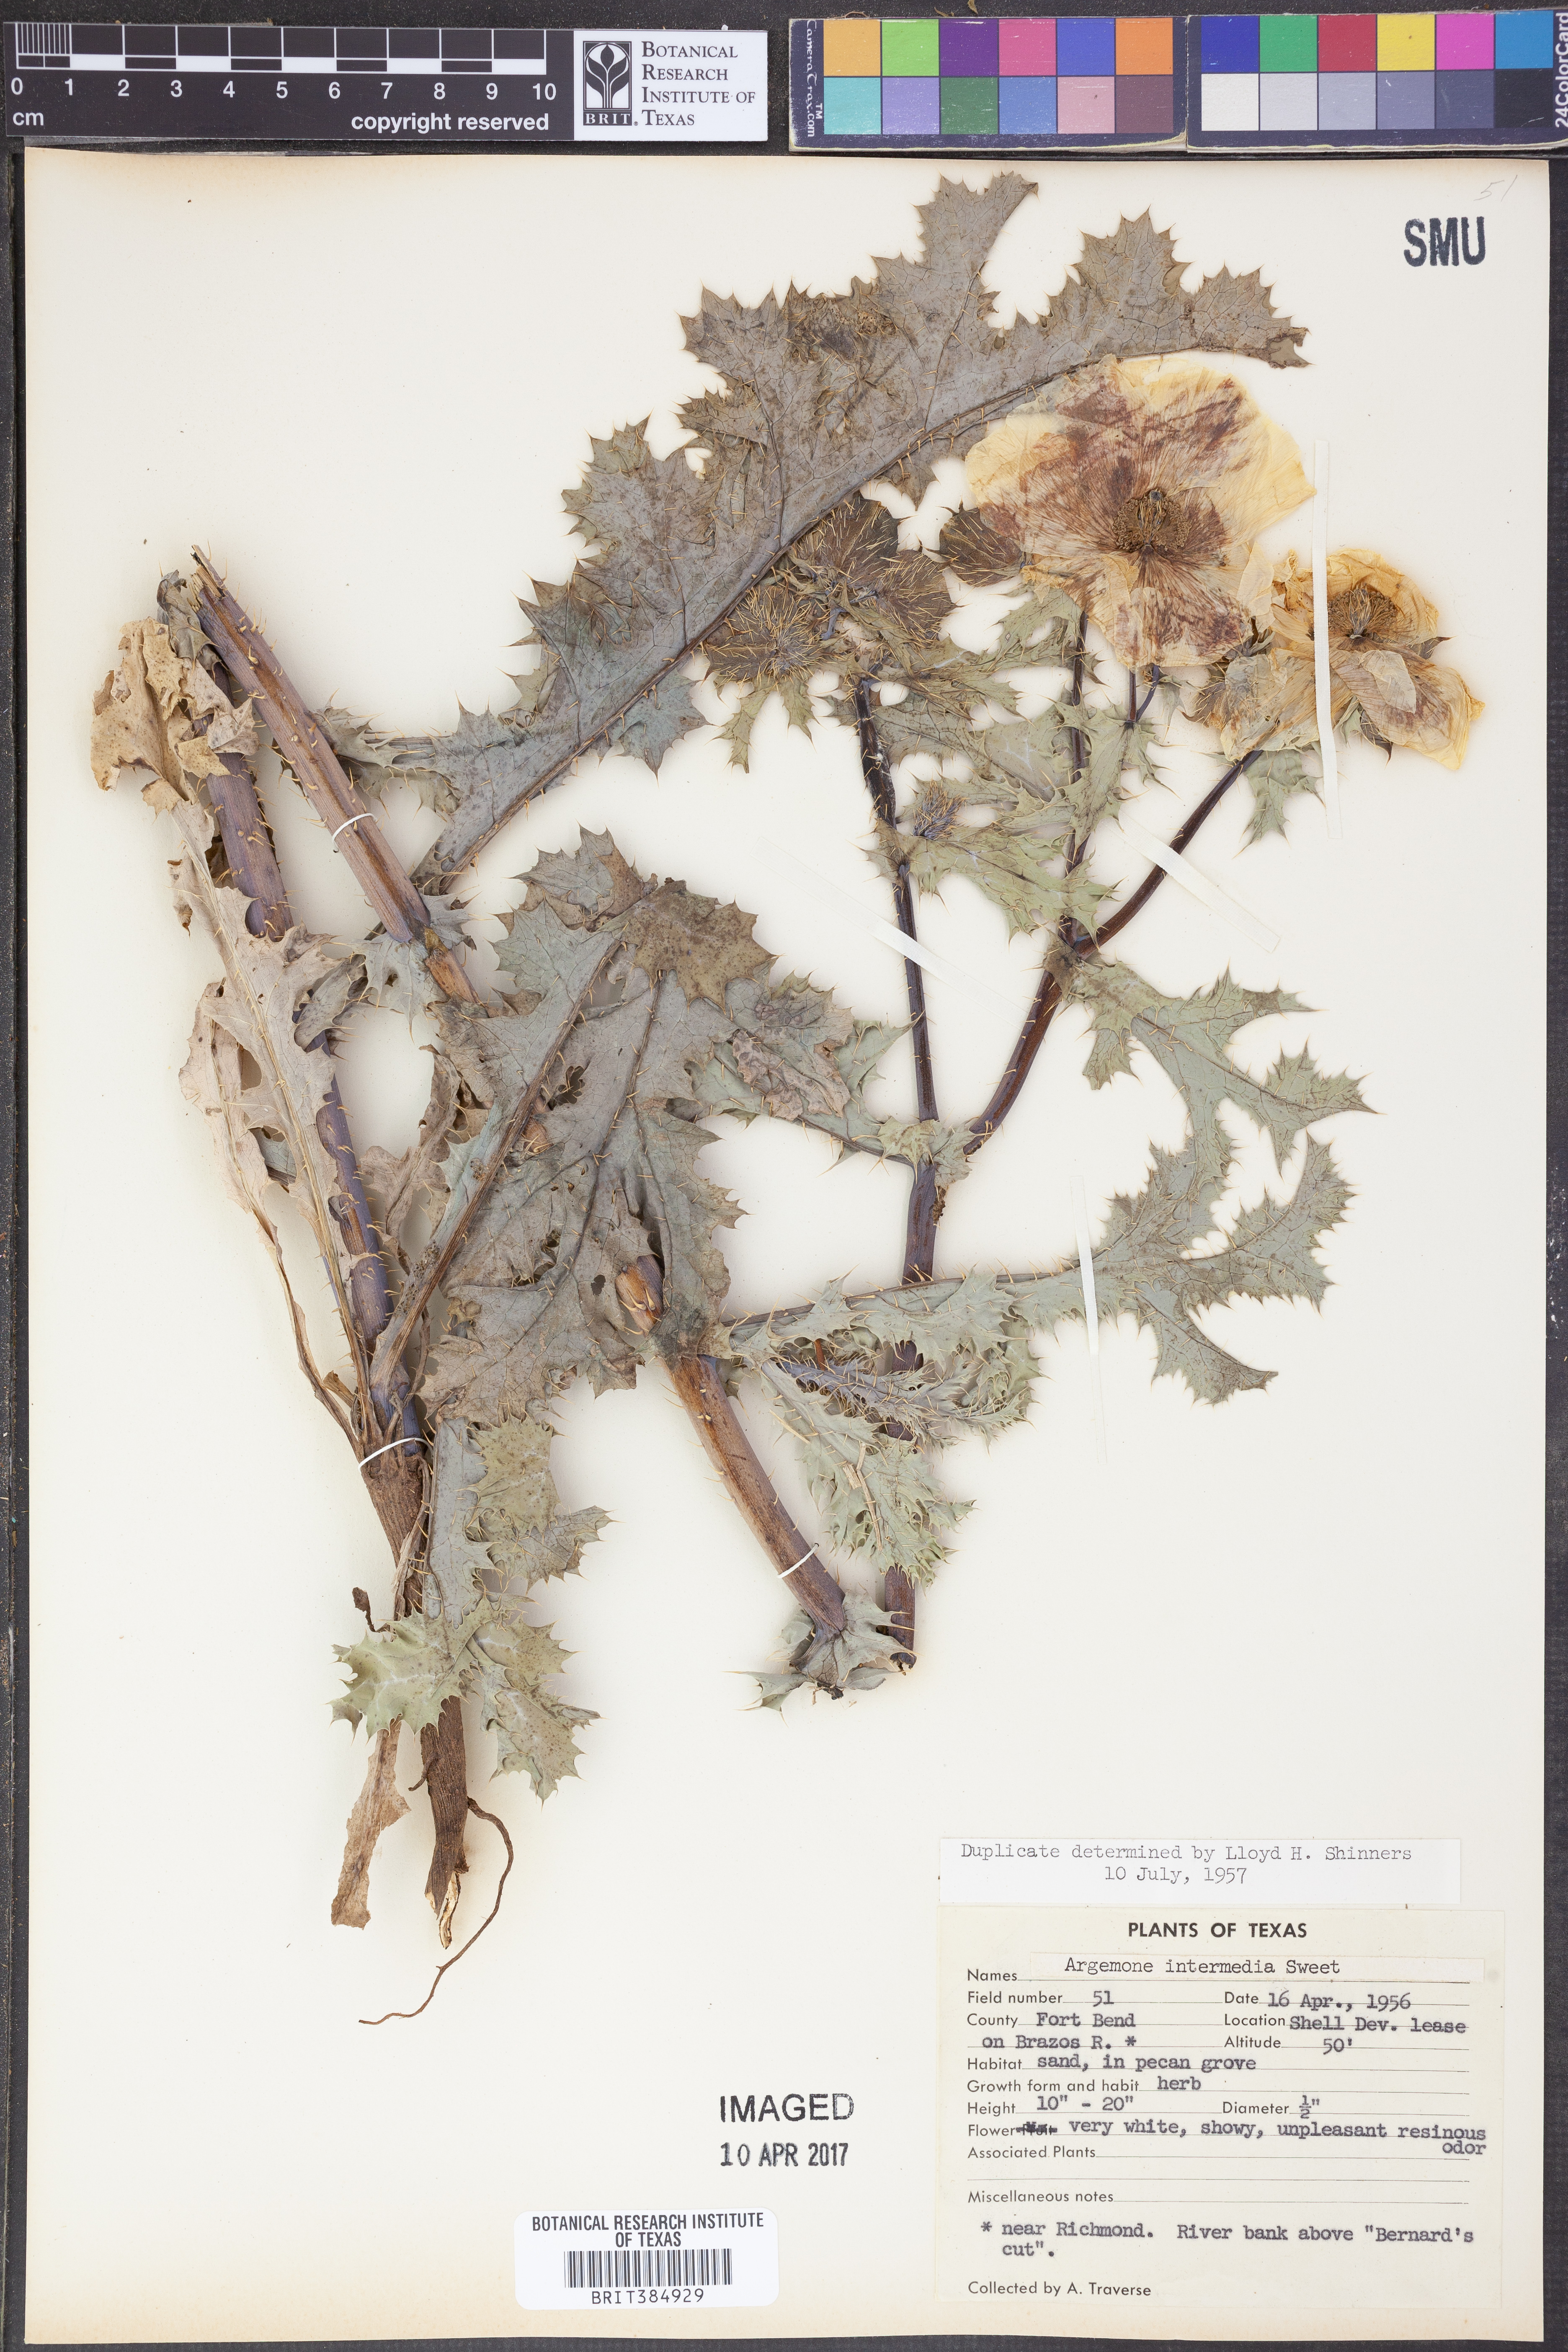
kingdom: Plantae
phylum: Tracheophyta
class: Magnoliopsida
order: Ranunculales
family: Papaveraceae
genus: Argemone
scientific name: Argemone intermedia
